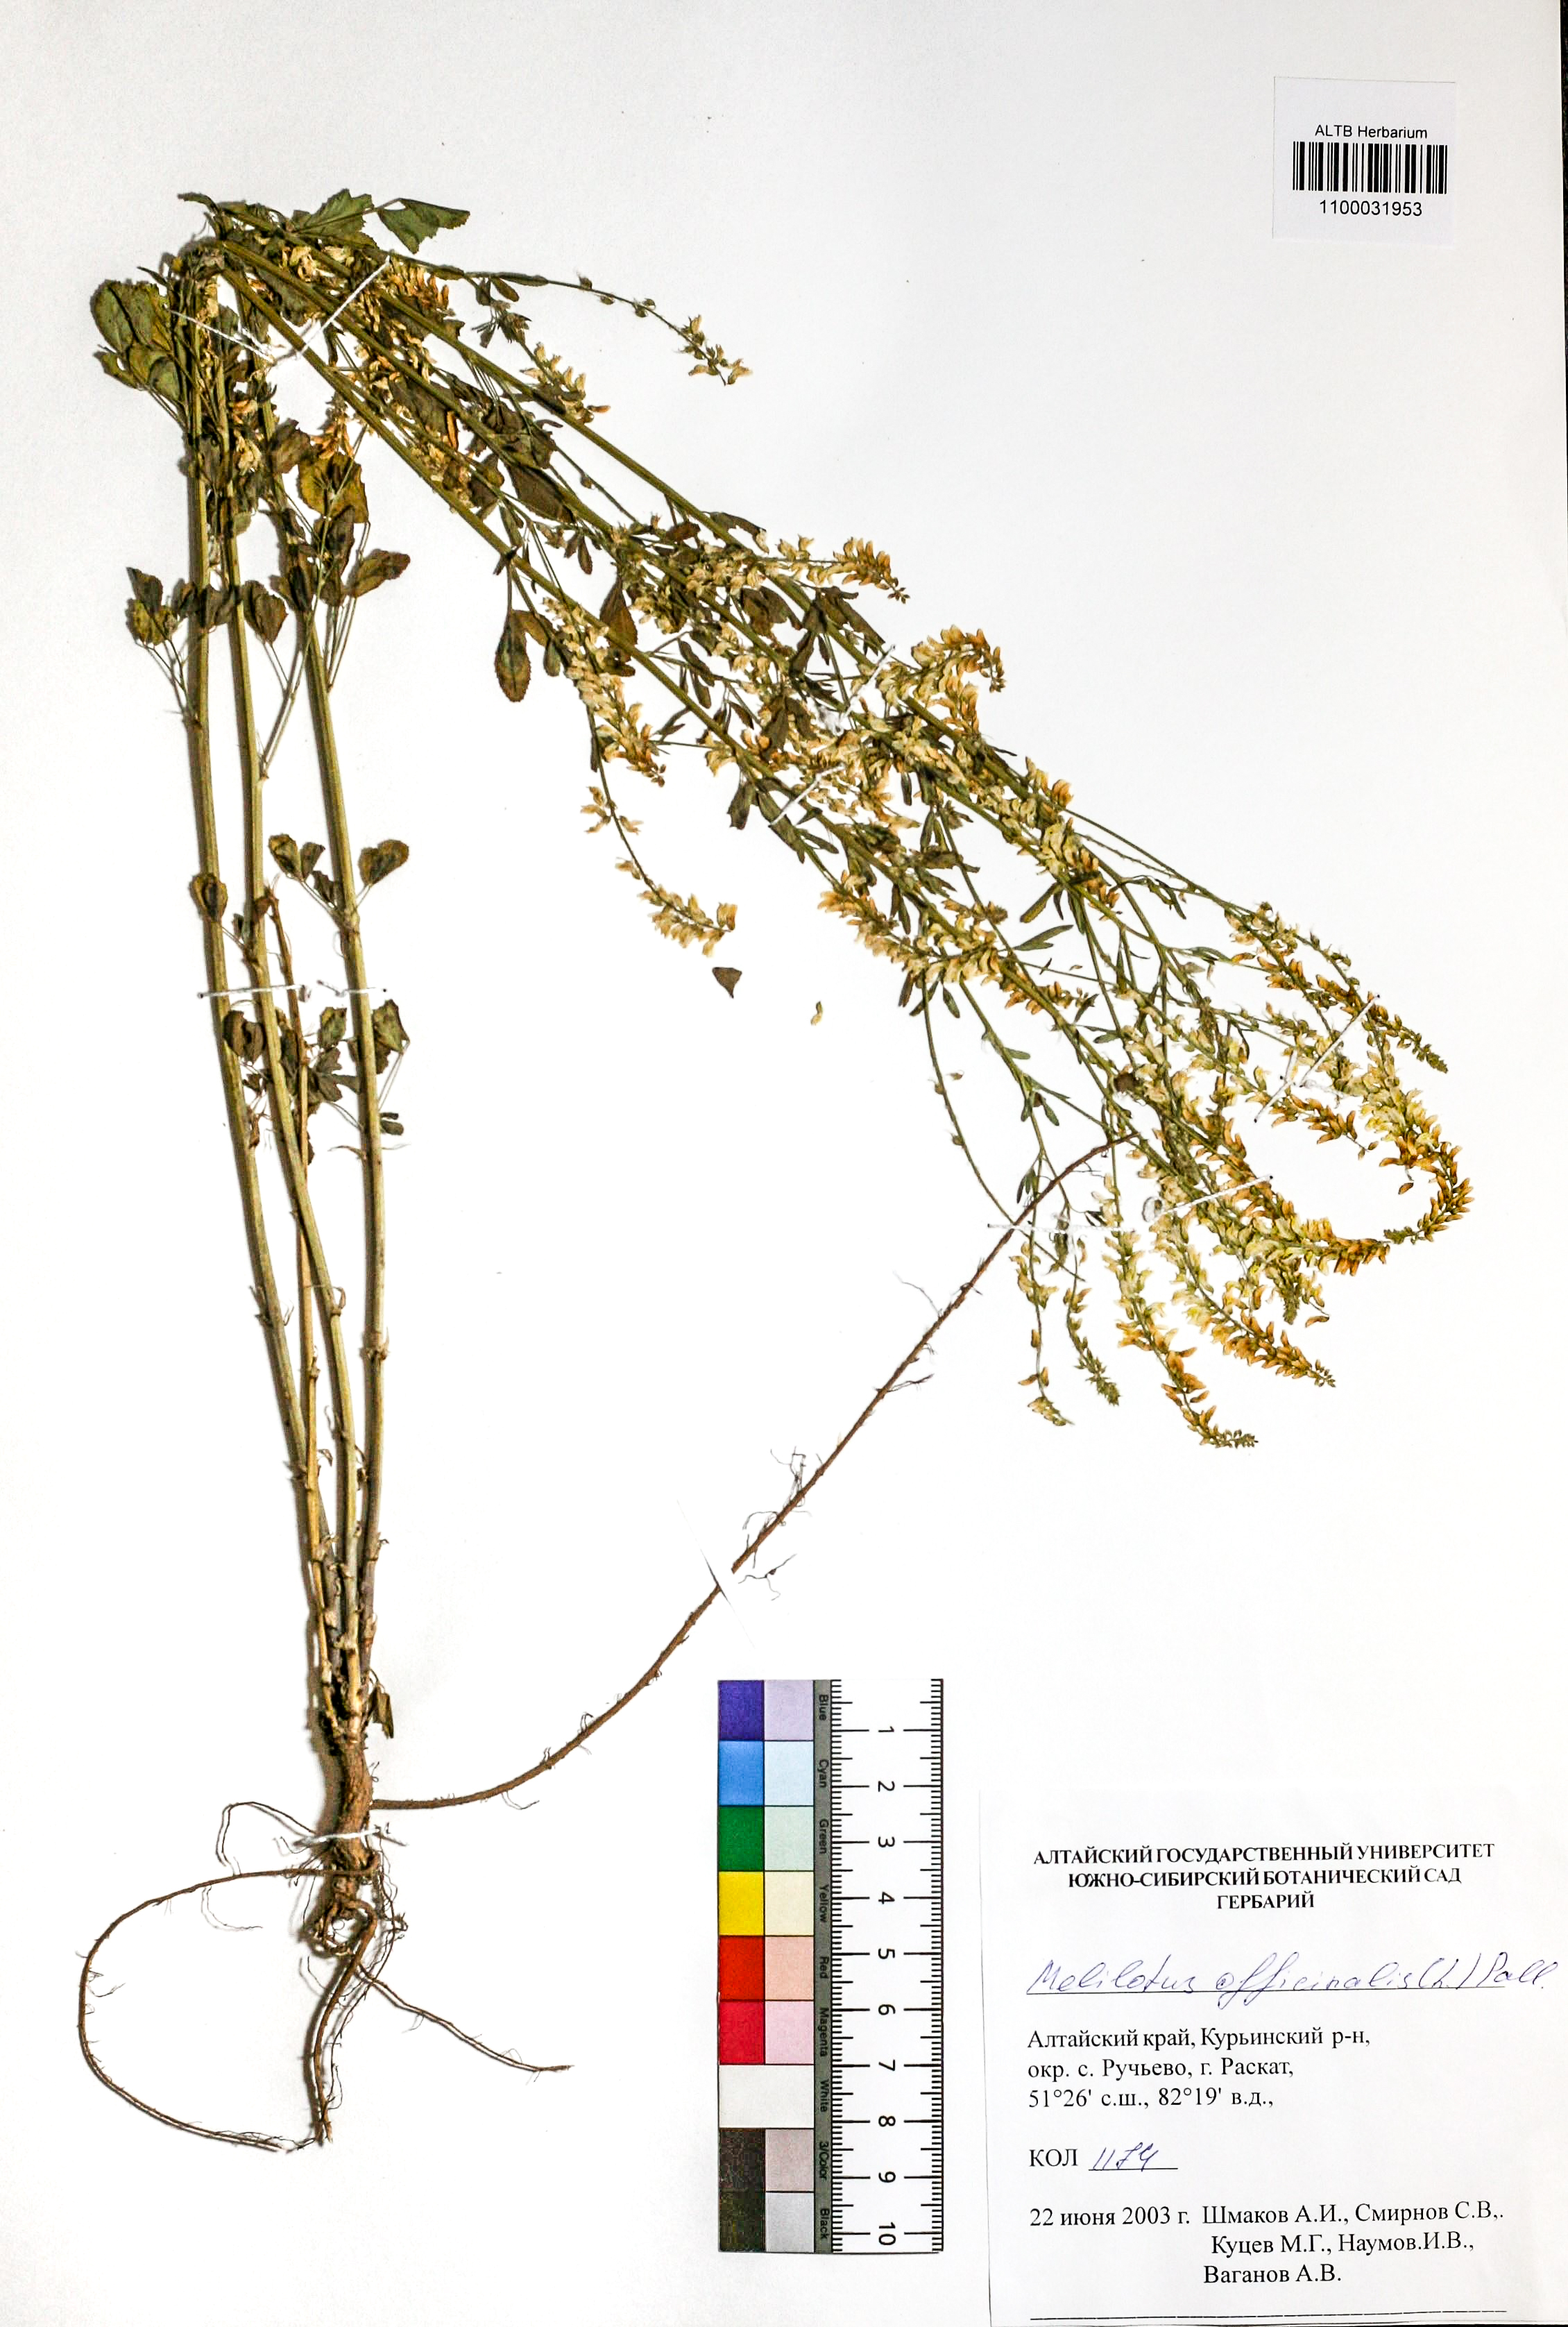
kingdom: Plantae
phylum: Tracheophyta
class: Magnoliopsida
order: Fabales
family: Fabaceae
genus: Melilotus
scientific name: Melilotus officinalis
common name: Sweetclover
